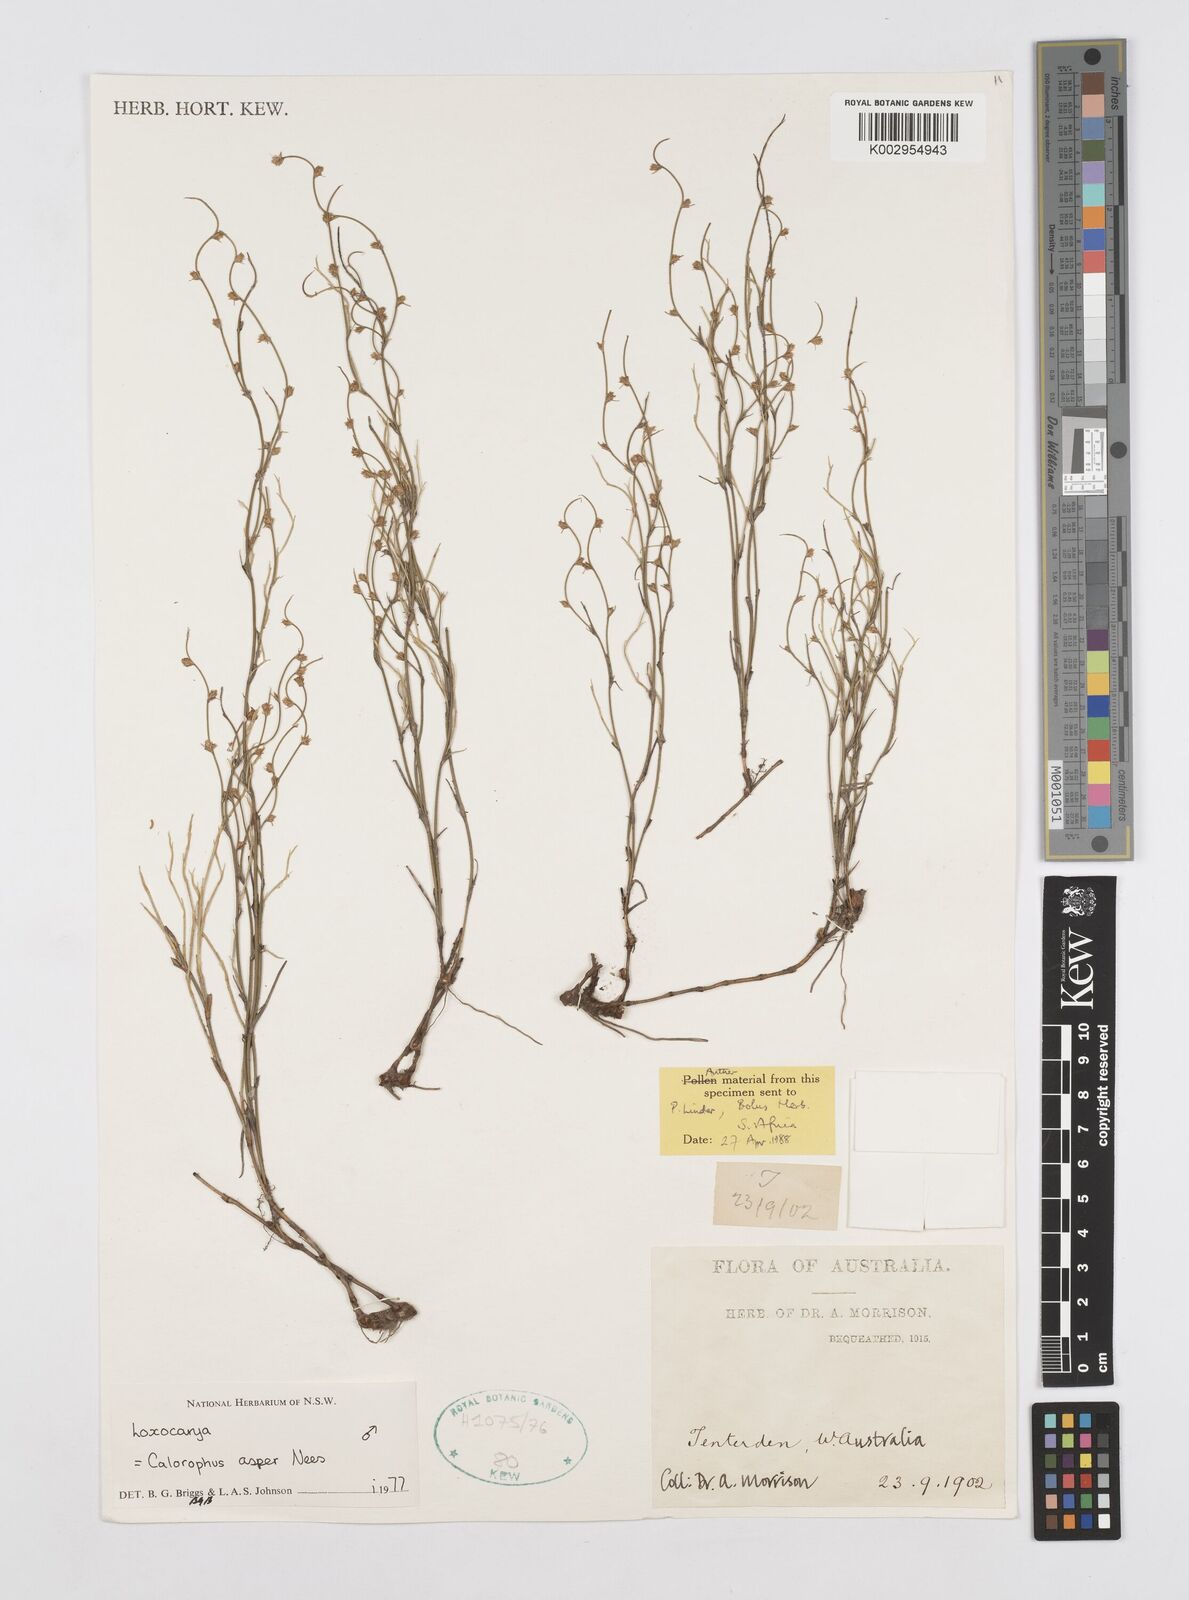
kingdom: Plantae
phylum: Tracheophyta
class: Liliopsida
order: Poales
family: Restionaceae
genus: Desmocladus
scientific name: Desmocladus asper
